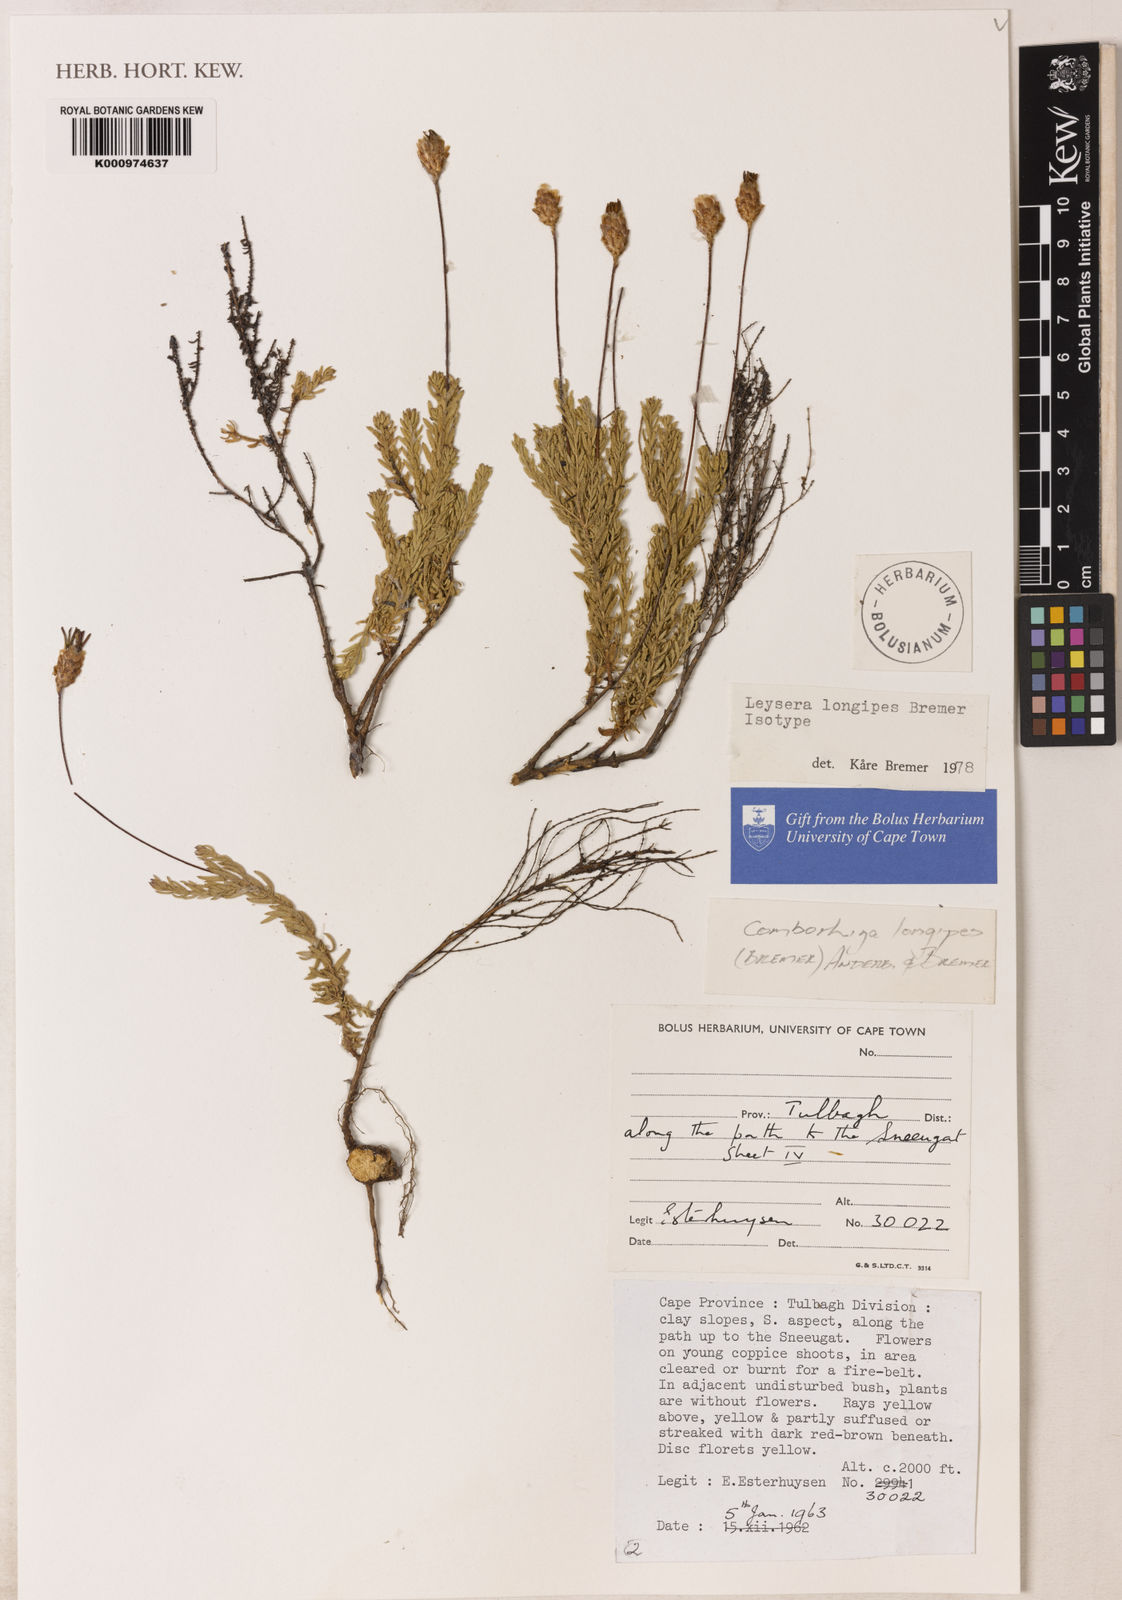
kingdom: Plantae
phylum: Tracheophyta
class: Magnoliopsida
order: Asterales
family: Asteraceae
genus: Oedera
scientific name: Oedera longipes
